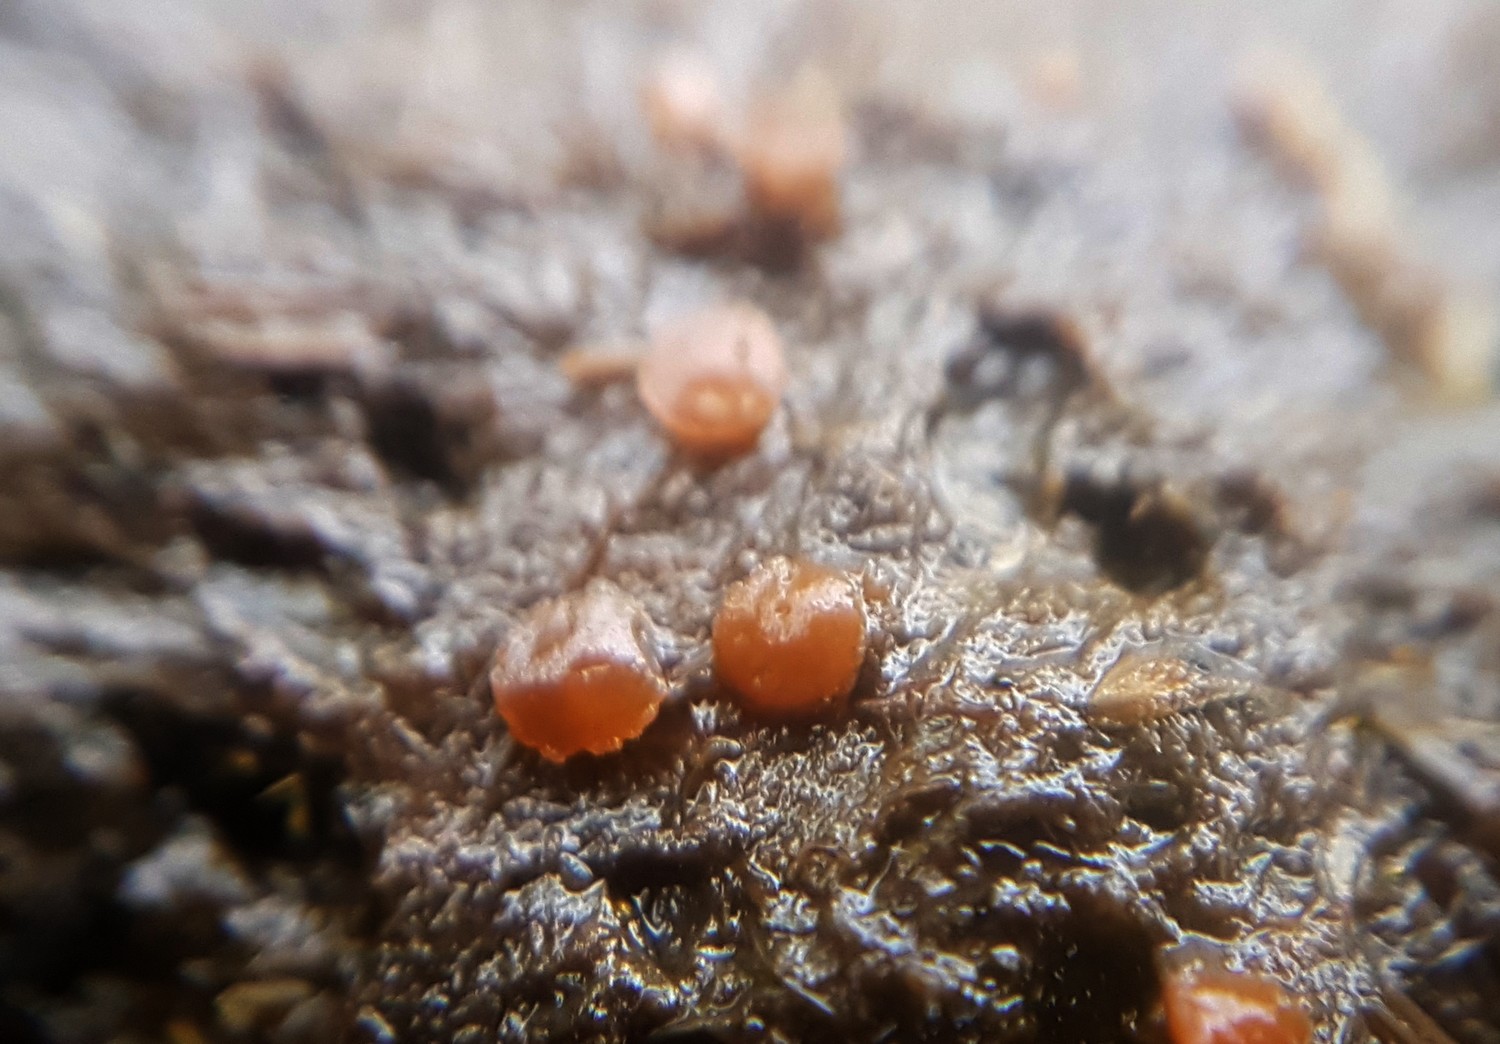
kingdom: Fungi
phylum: Ascomycota
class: Pezizomycetes
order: Pezizales
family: Pyronemataceae
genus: Cheilymenia
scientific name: Cheilymenia granulata
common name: møgbæger
